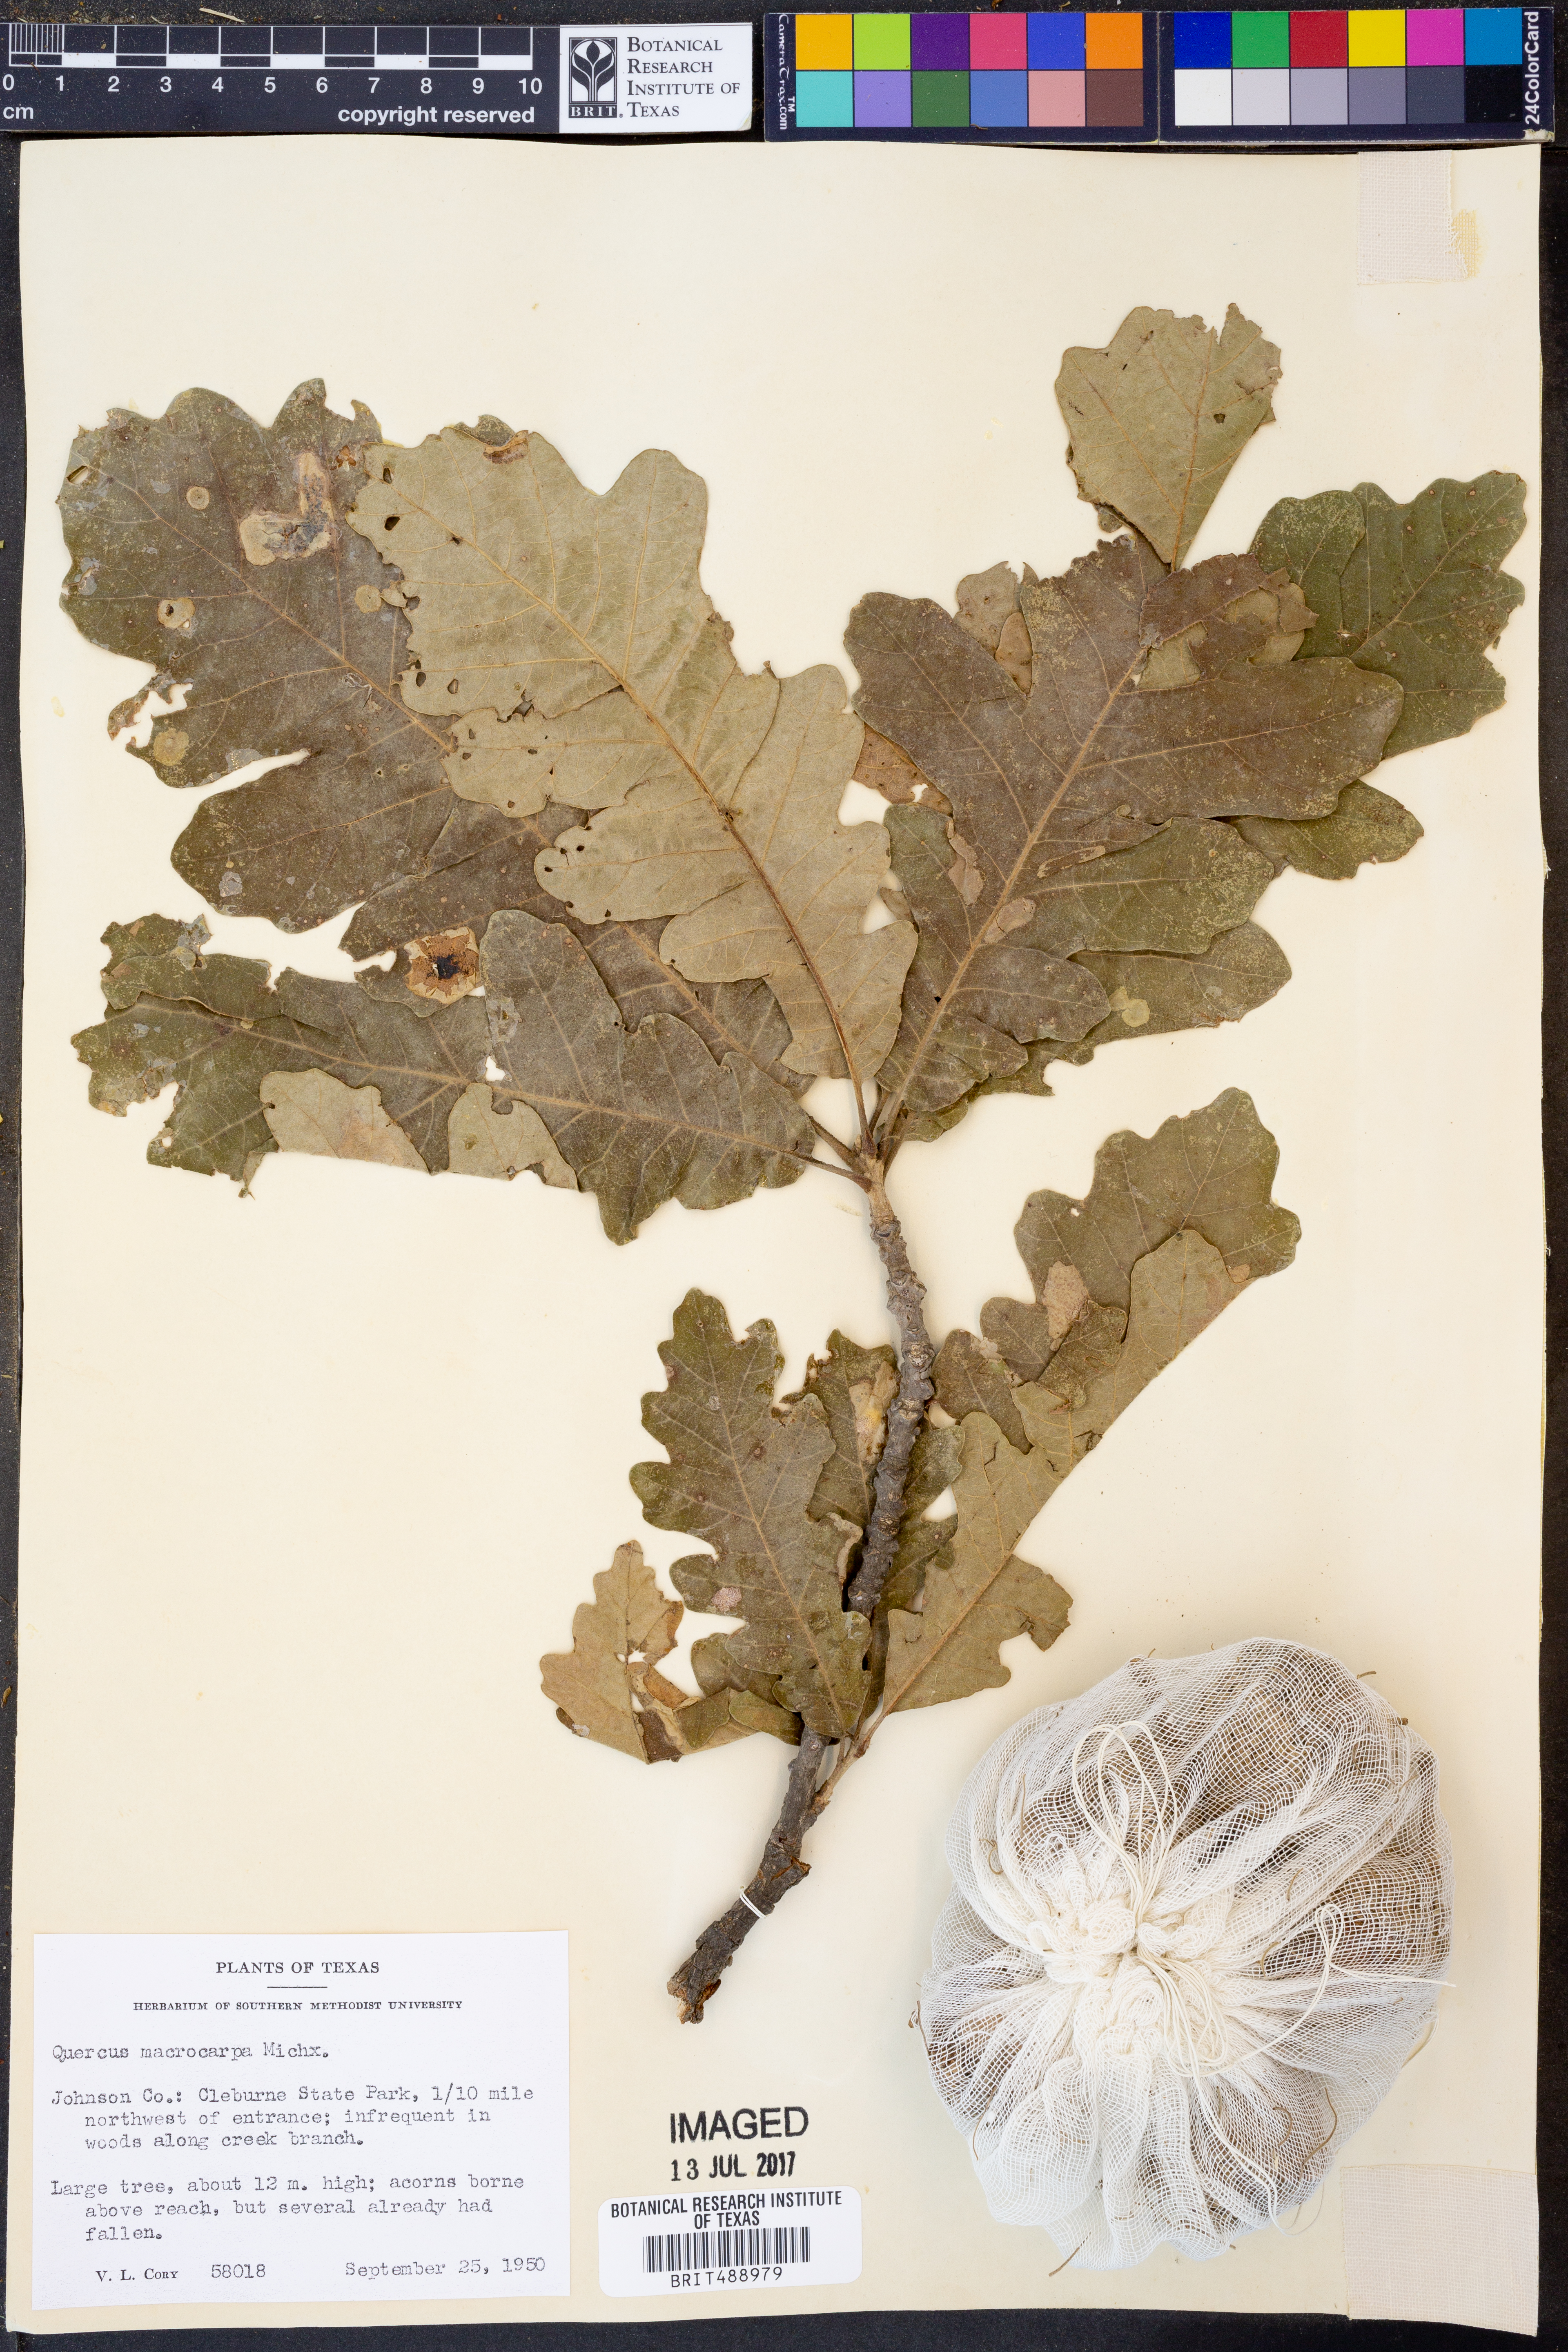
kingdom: Plantae
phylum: Tracheophyta
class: Magnoliopsida
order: Fagales
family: Fagaceae
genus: Quercus
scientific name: Quercus macrocarpa
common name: Bur oak
